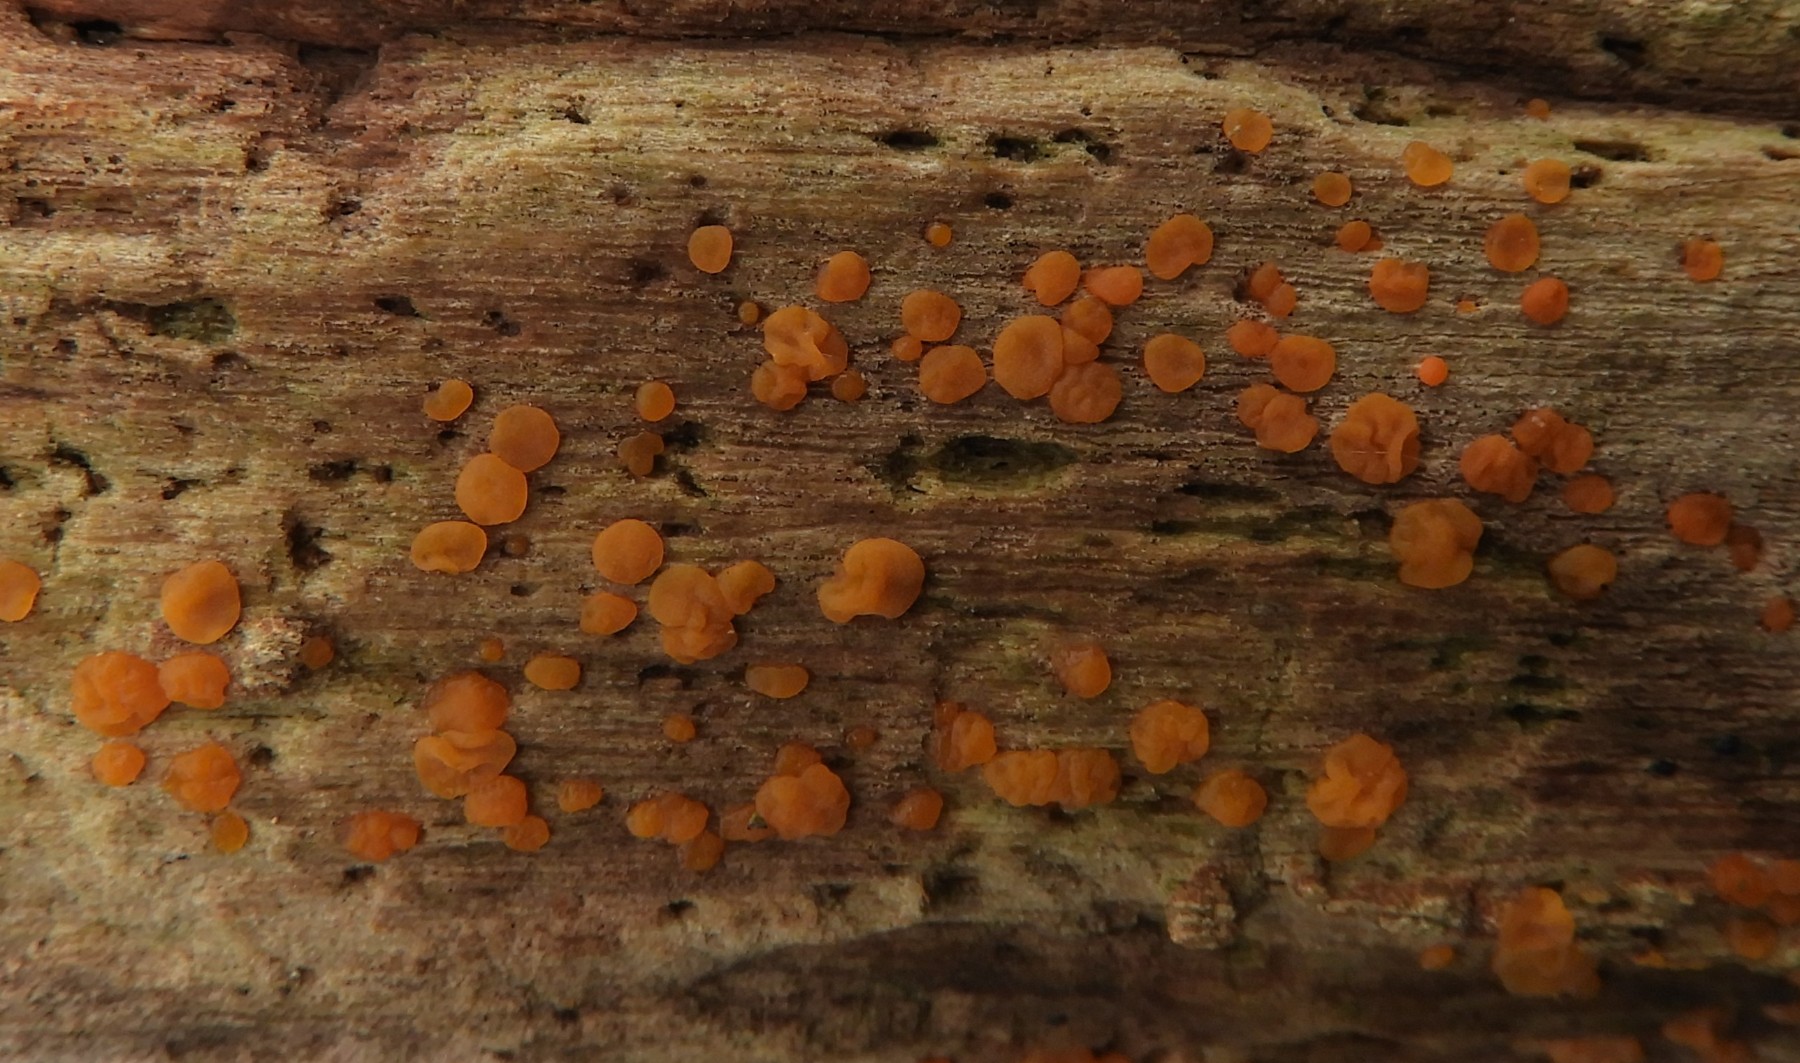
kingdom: Fungi
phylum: Basidiomycota
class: Dacrymycetes
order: Dacrymycetales
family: Dacrymycetaceae
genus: Dacrymyces
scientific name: Dacrymyces stillatus
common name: almindelig tåresvamp
